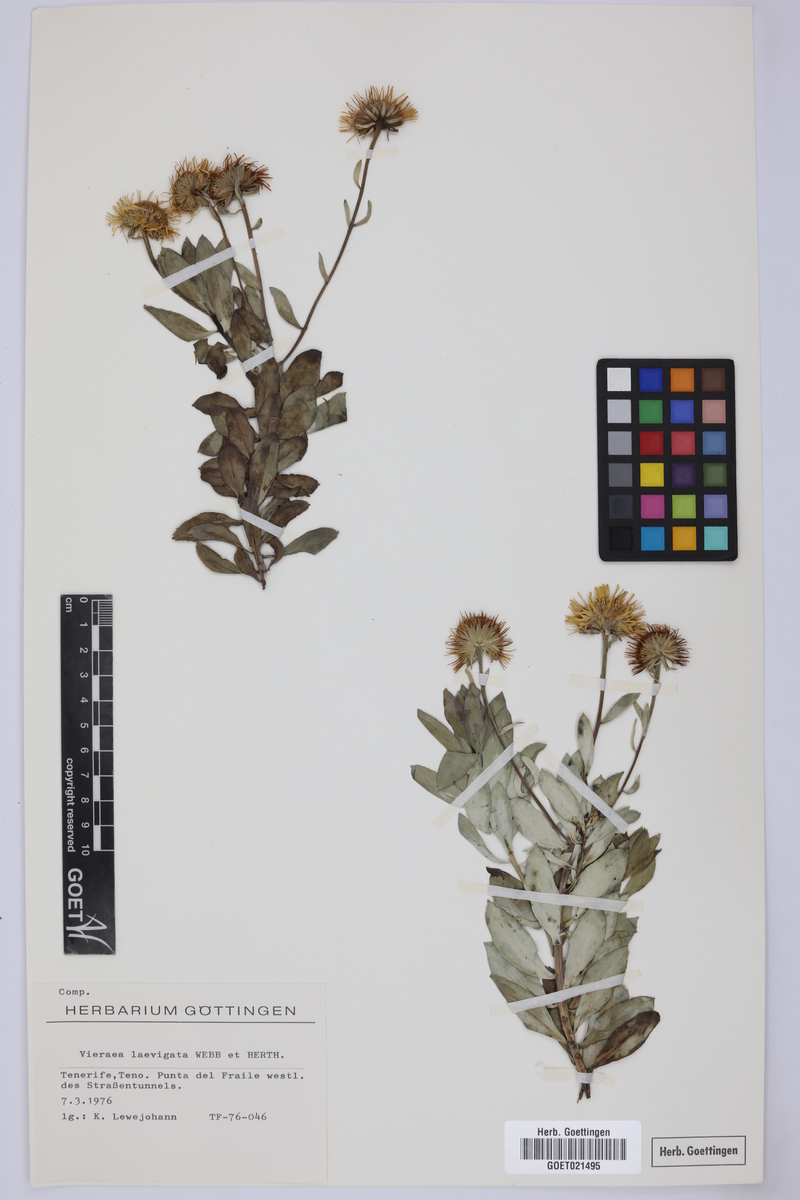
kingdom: Plantae
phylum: Tracheophyta
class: Magnoliopsida
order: Asterales
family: Asteraceae
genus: Vieraea
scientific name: Vieraea laevigata
